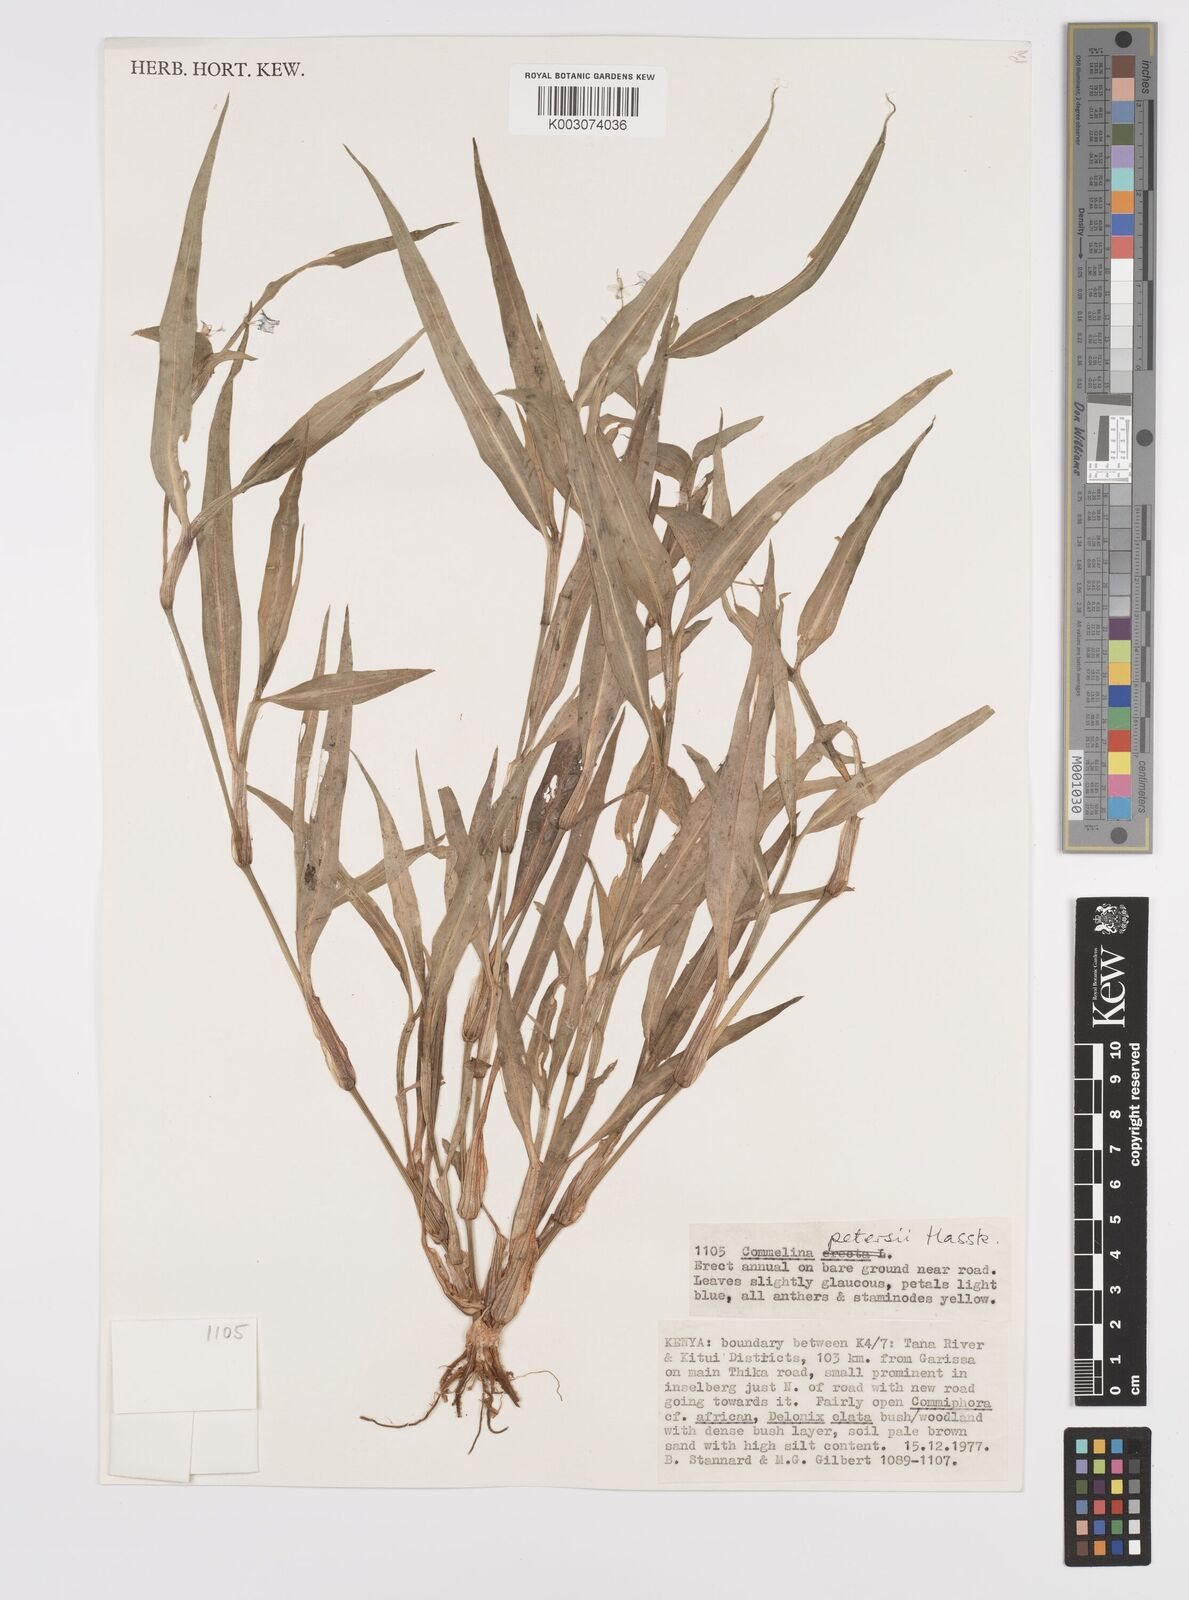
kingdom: Plantae
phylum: Tracheophyta
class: Liliopsida
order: Commelinales
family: Commelinaceae
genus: Commelina
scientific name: Commelina petersii
